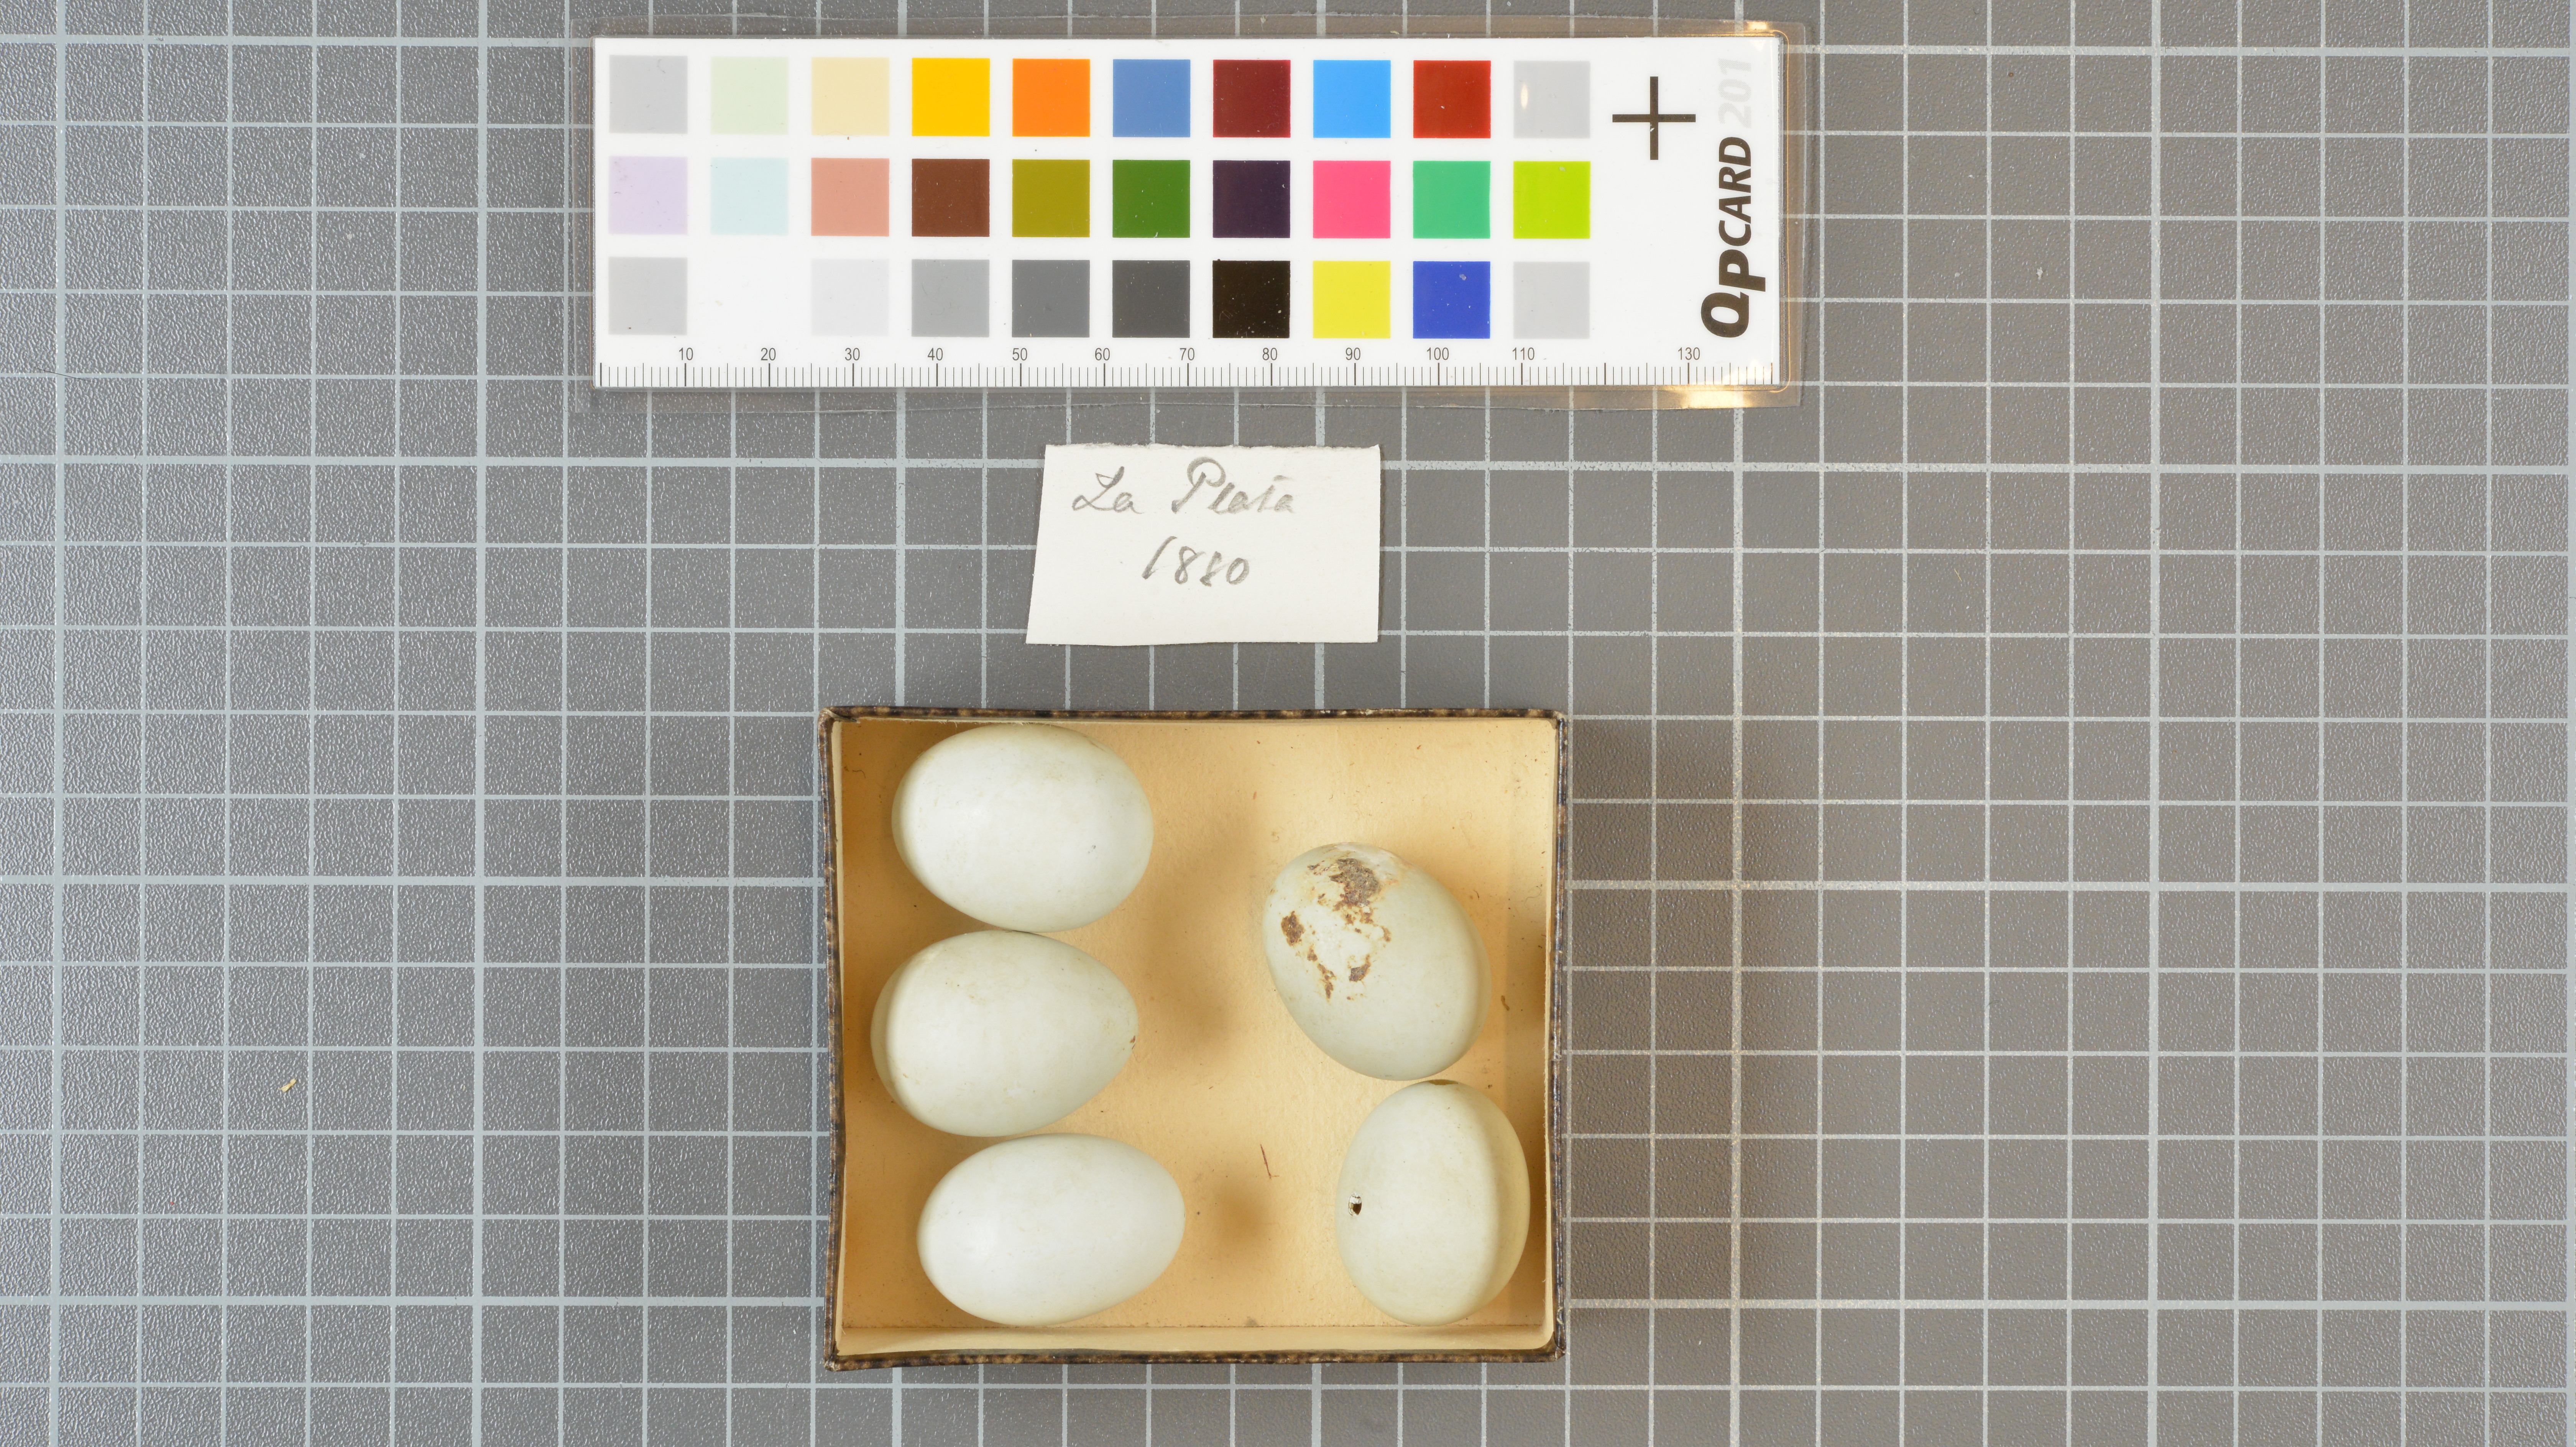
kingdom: Animalia
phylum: Chordata
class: Aves
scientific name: Aves
